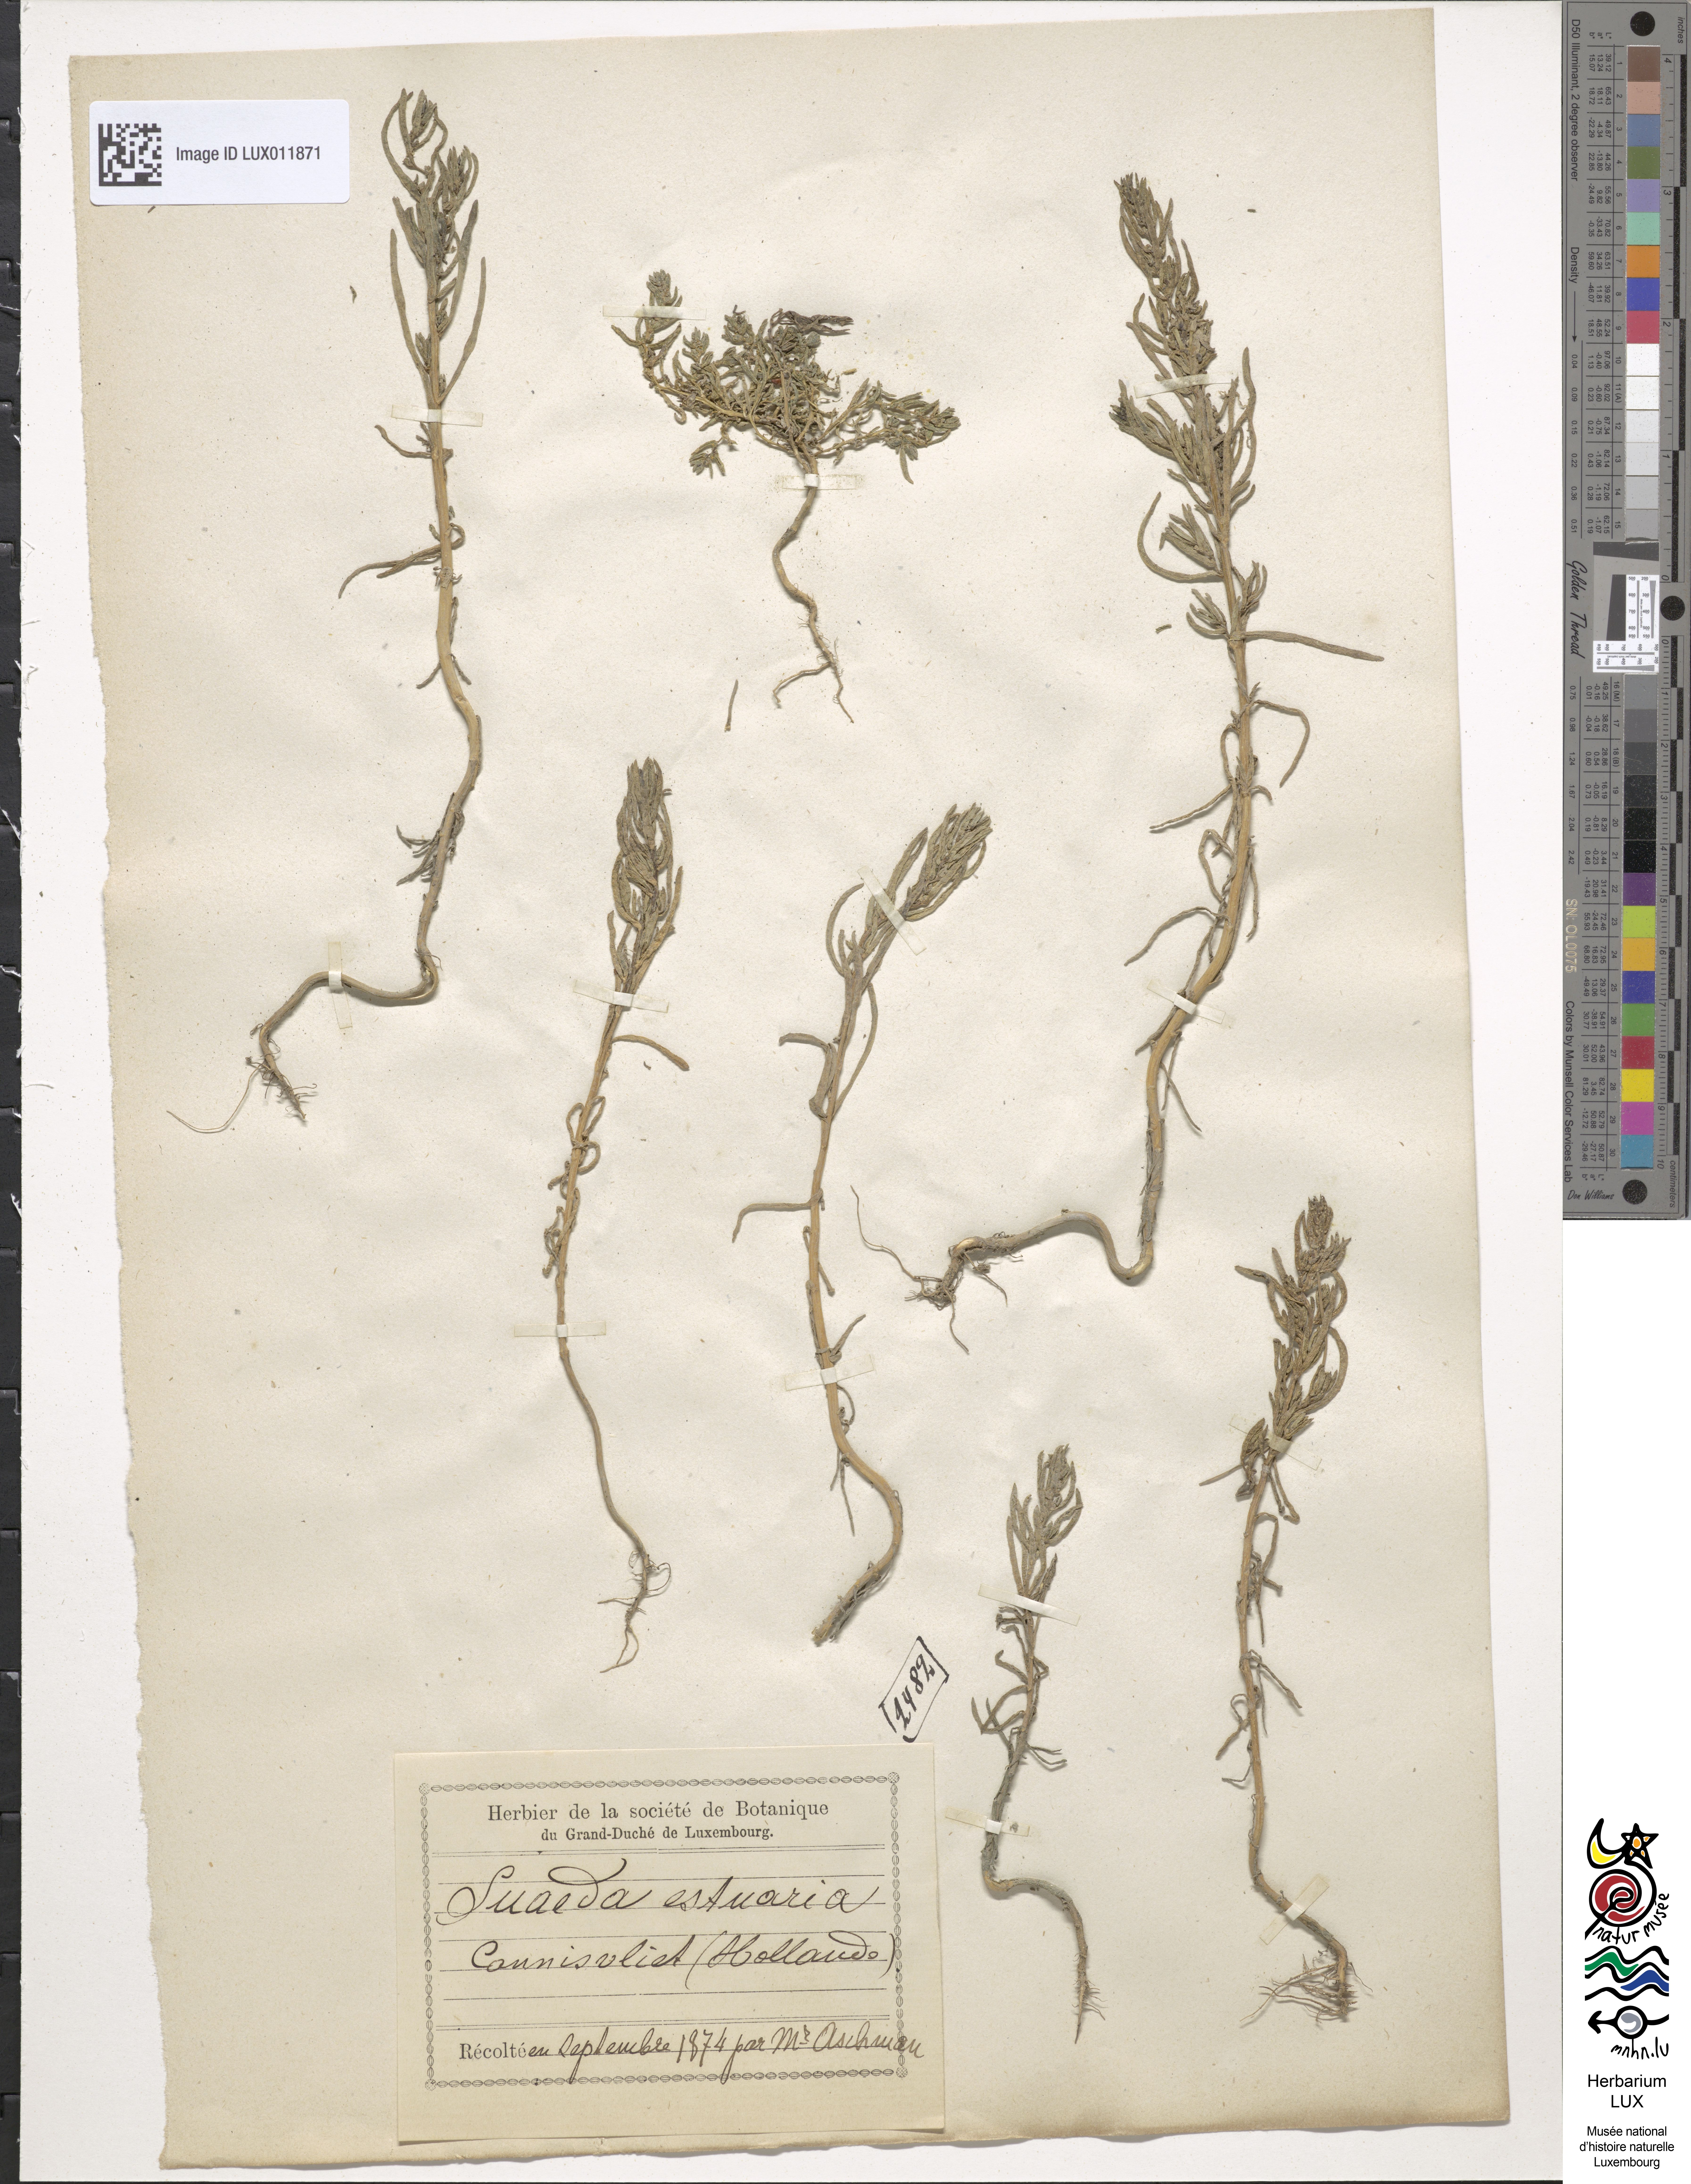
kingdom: Plantae
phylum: Tracheophyta
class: Magnoliopsida
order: Caryophyllales
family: Amaranthaceae
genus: Suaeda
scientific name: Suaeda maritima
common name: Annual sea-blite
